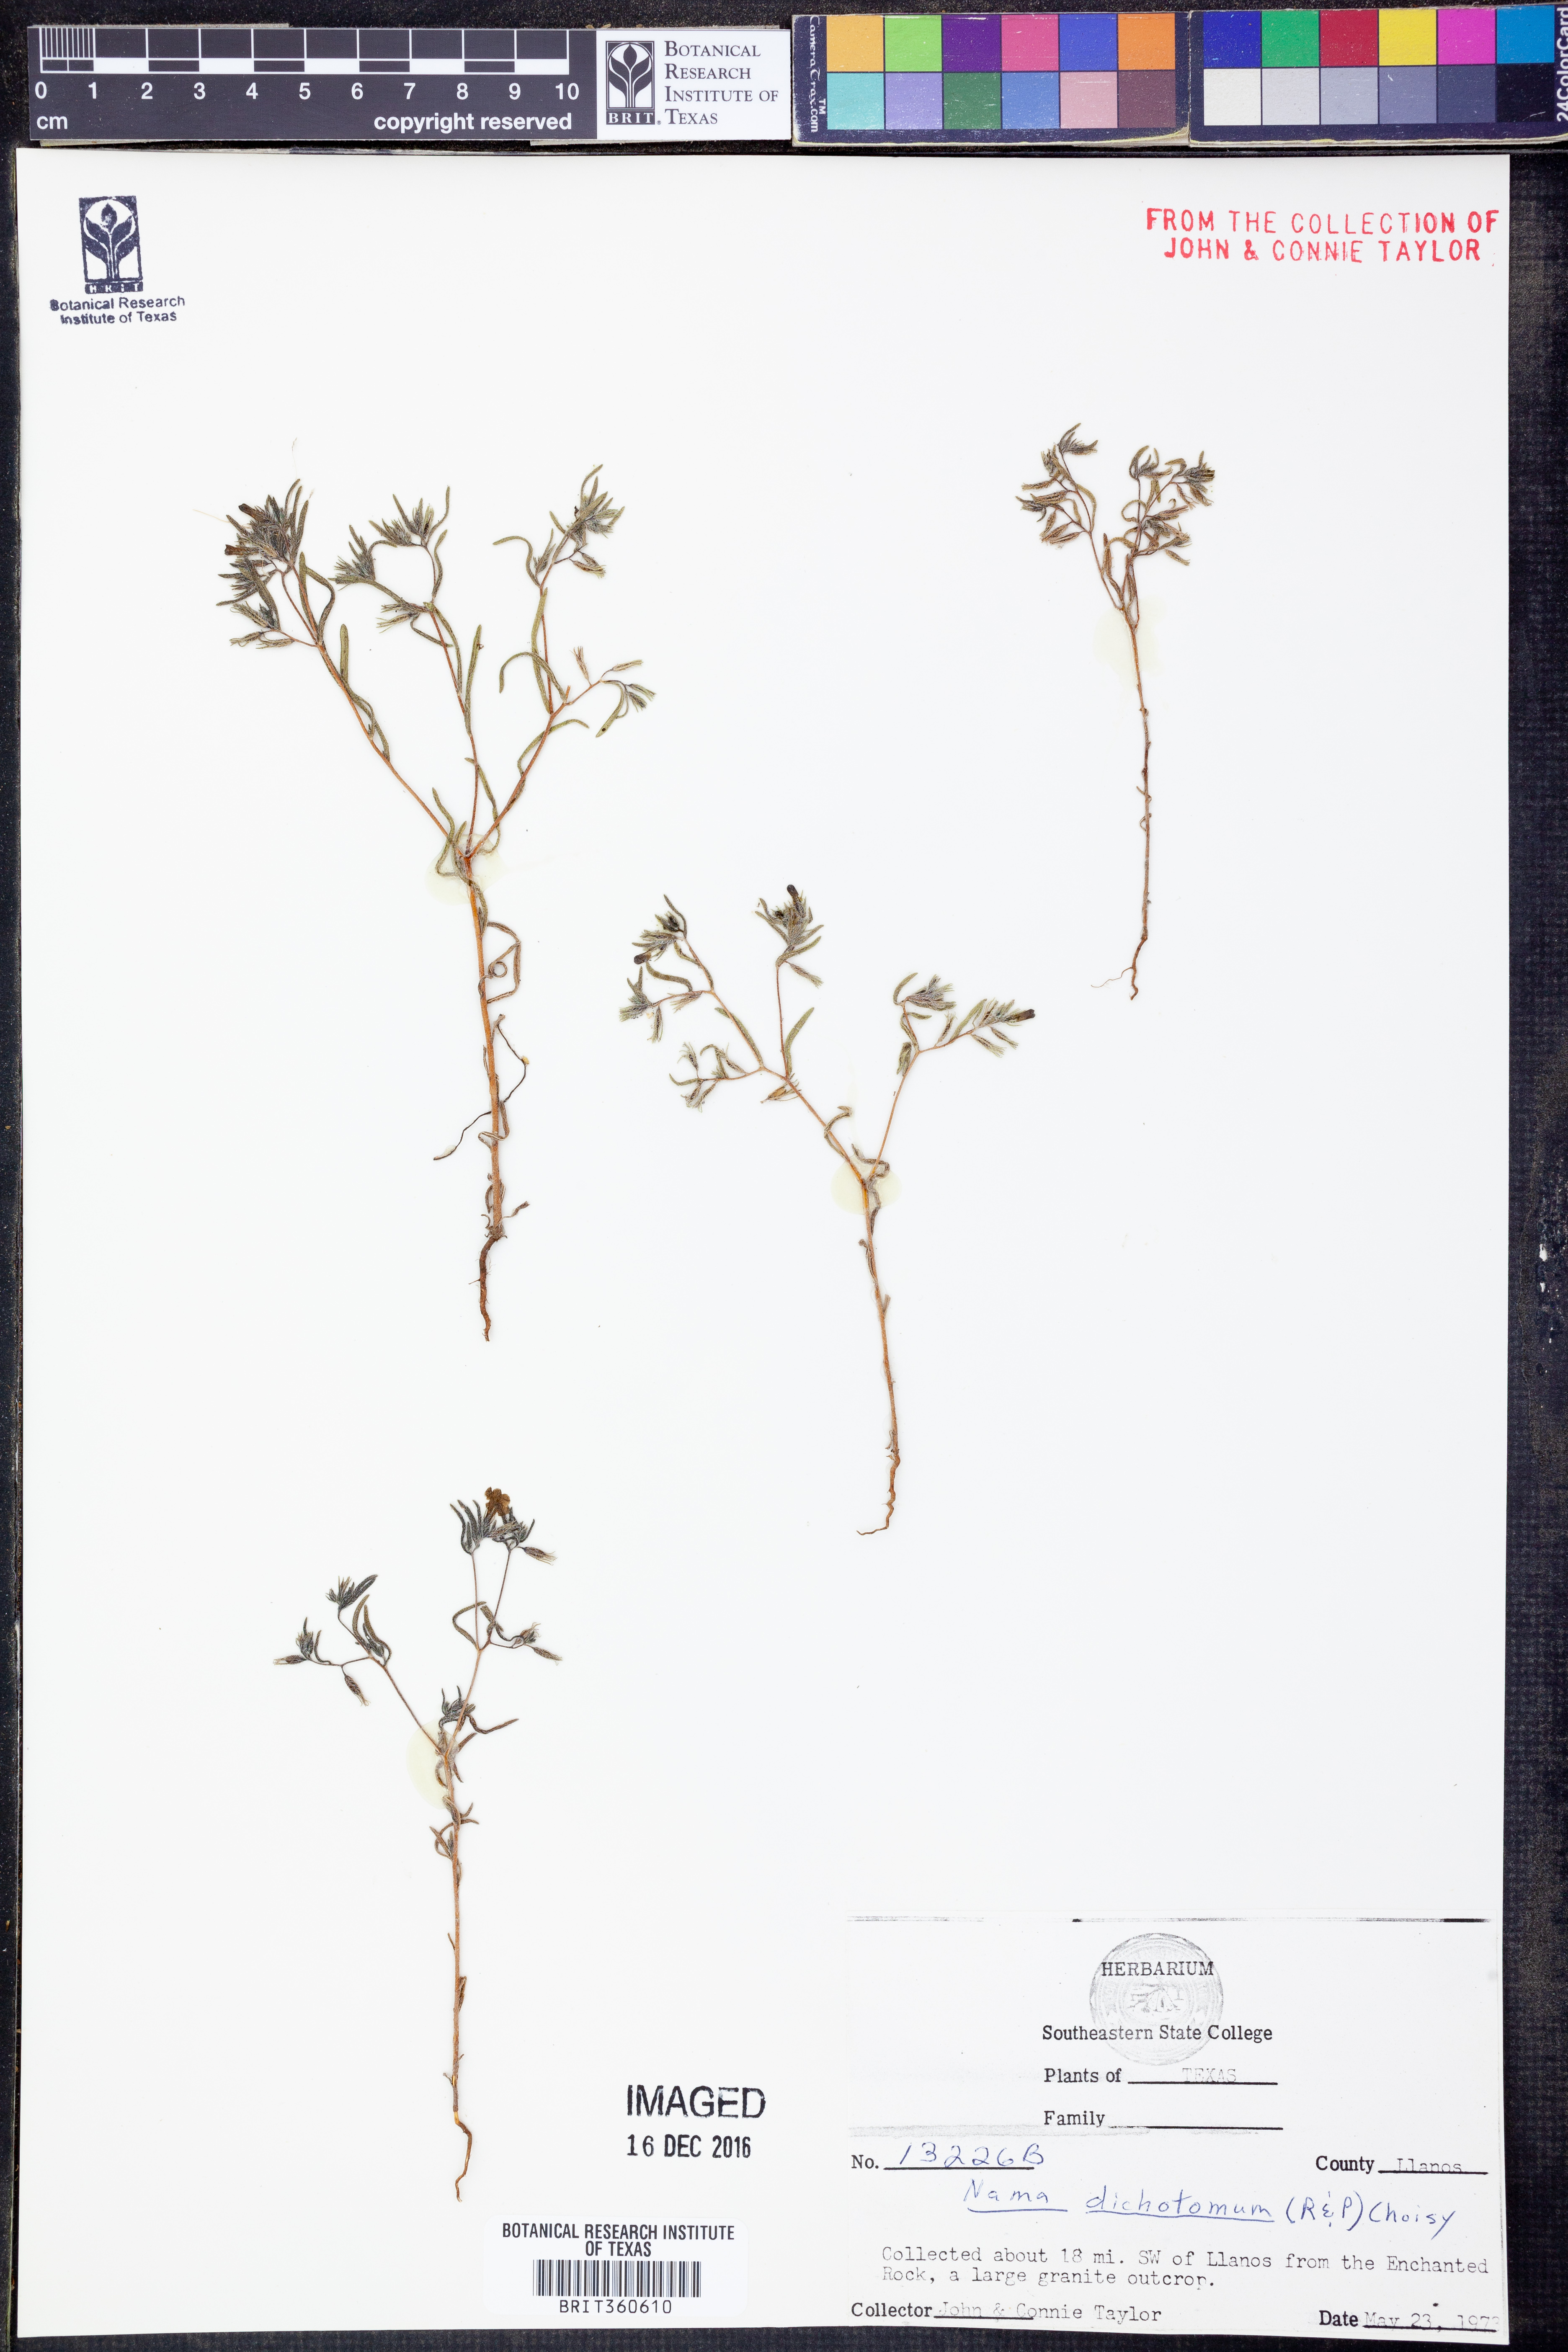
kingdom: Plantae
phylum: Tracheophyta
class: Magnoliopsida
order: Boraginales
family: Namaceae
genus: Nama
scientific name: Nama dichotoma
